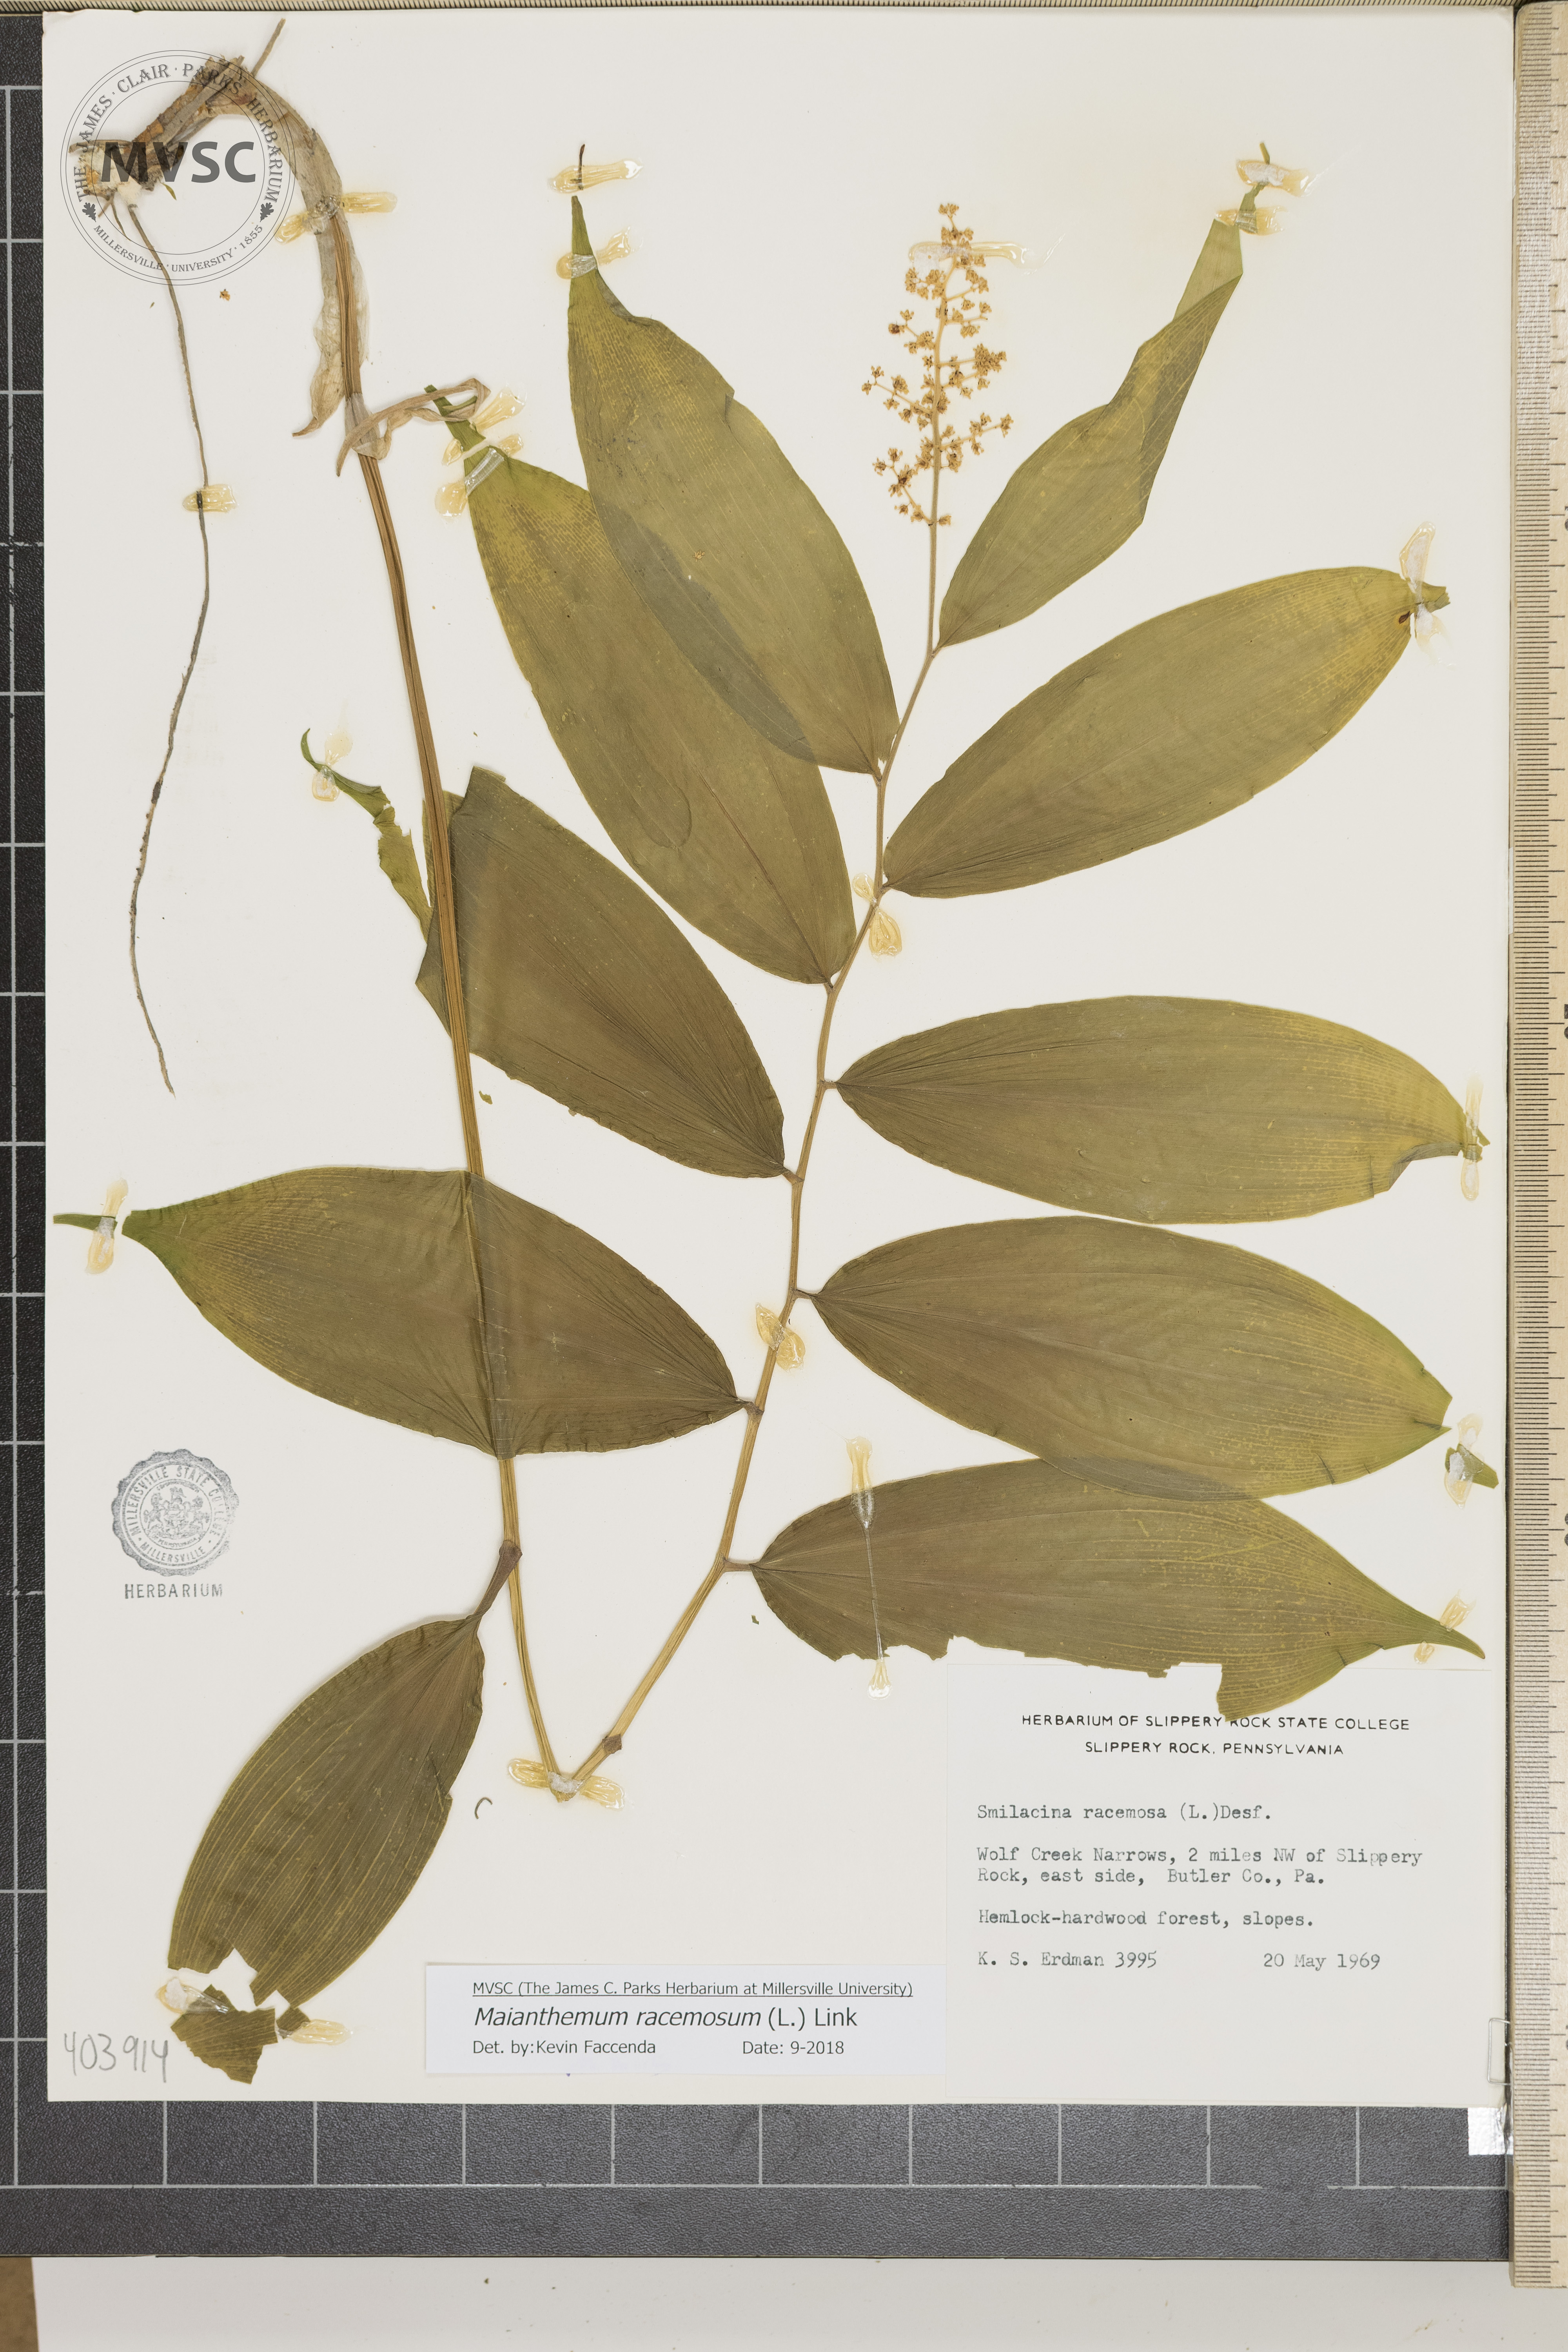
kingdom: Plantae
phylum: Tracheophyta
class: Liliopsida
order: Asparagales
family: Asparagaceae
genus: Maianthemum
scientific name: Maianthemum racemosum
